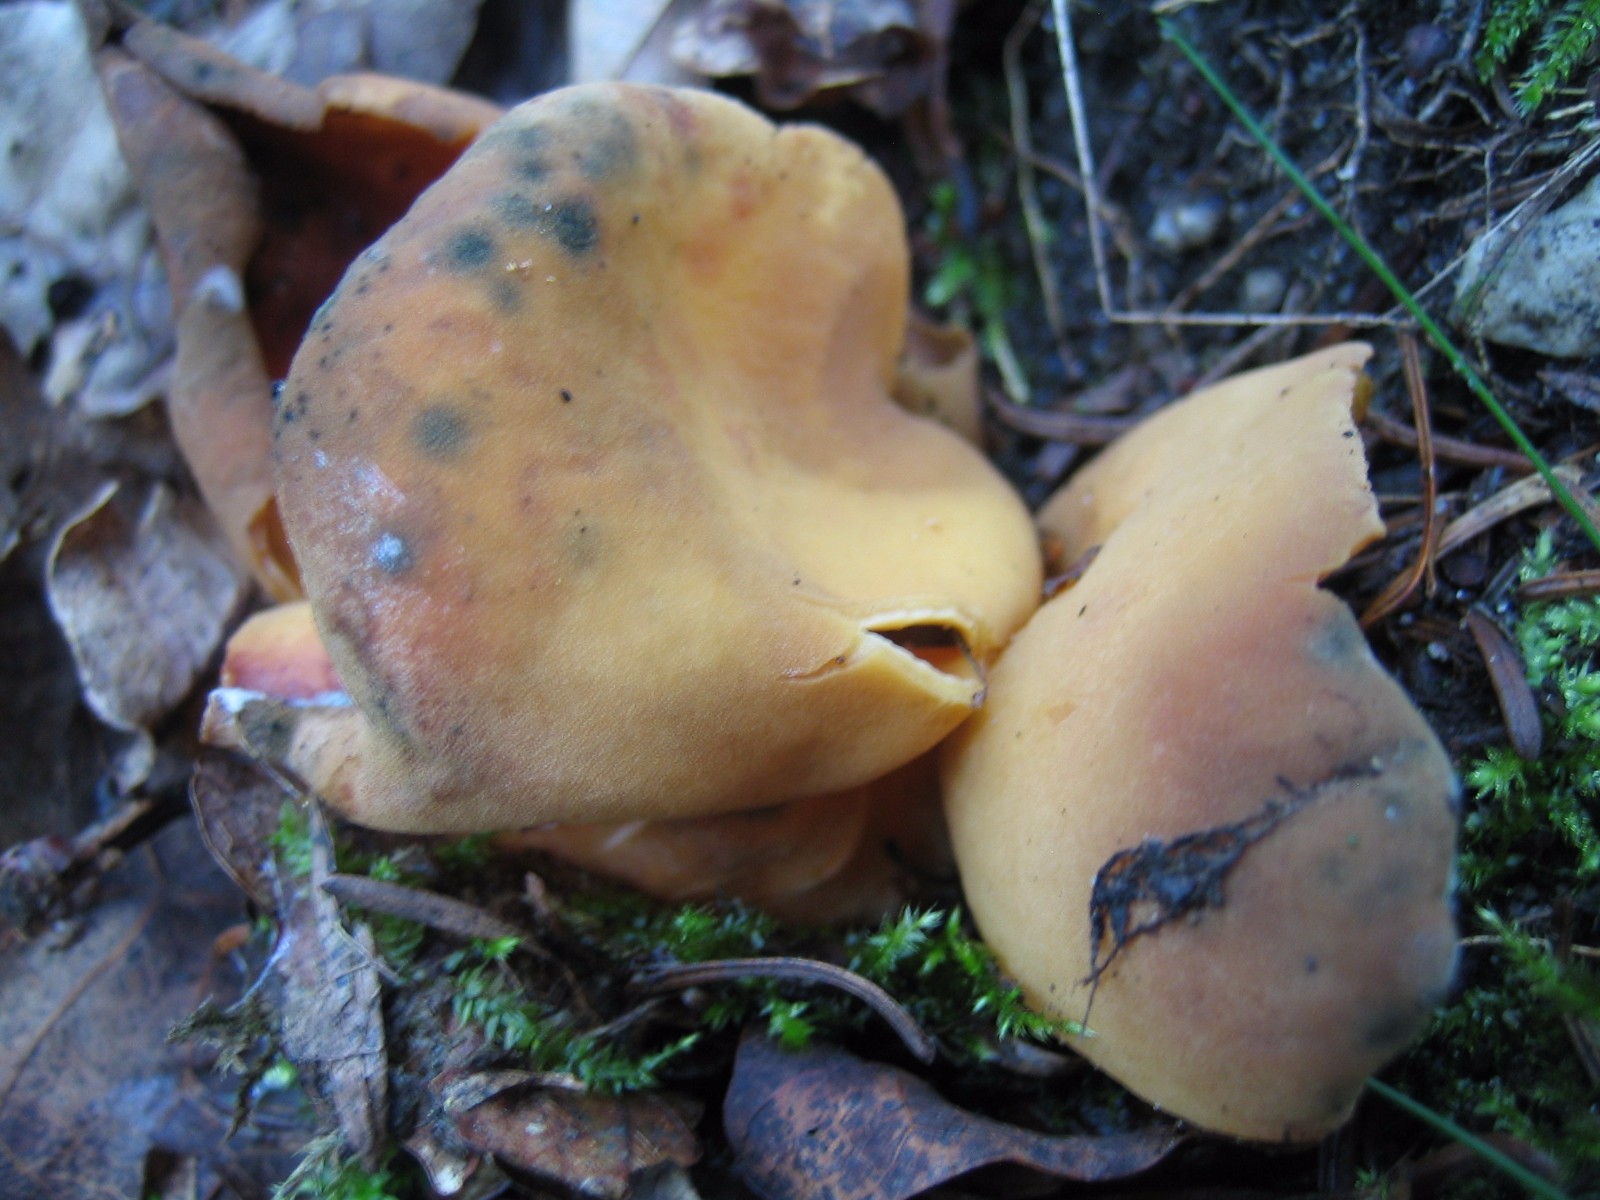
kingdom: Fungi
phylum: Ascomycota
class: Pezizomycetes
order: Pezizales
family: Otideaceae
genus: Otidea
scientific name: Otidea onotica
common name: æsel-ørebæger
